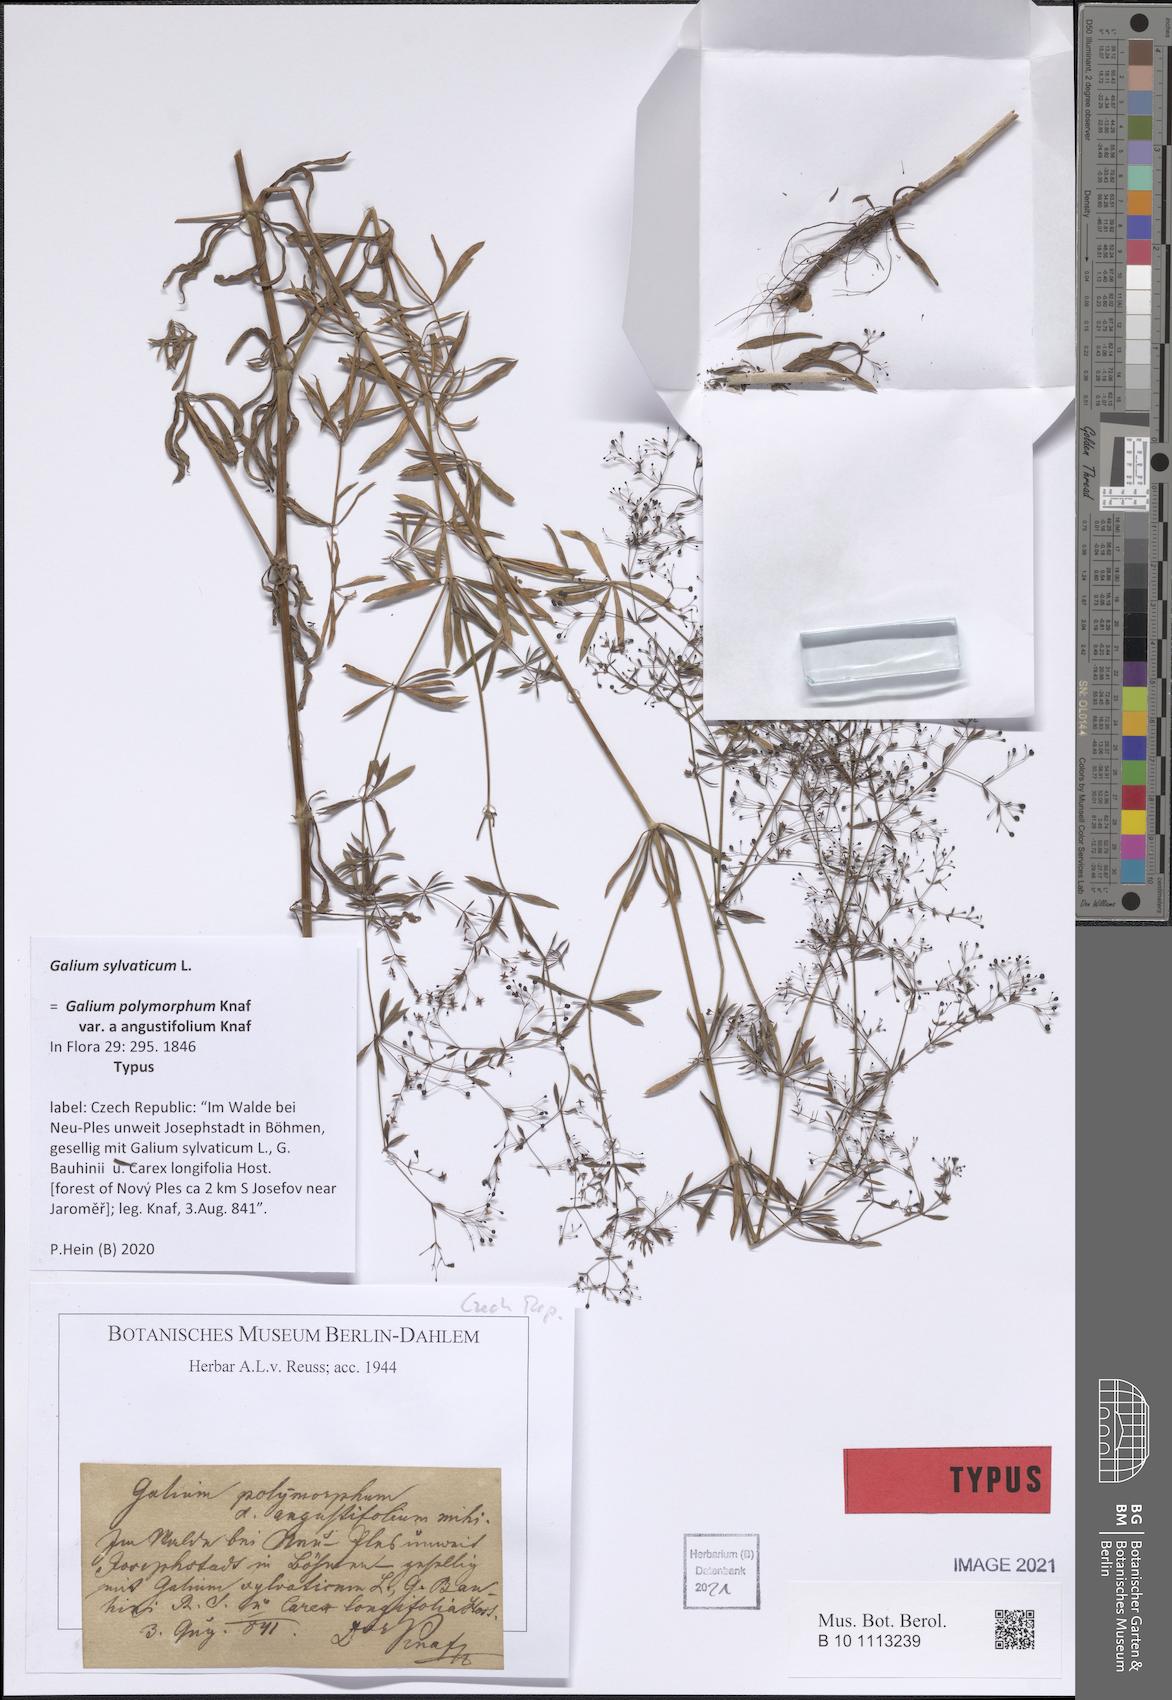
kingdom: Plantae
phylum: Tracheophyta
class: Magnoliopsida
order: Gentianales
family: Rubiaceae
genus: Galium
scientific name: Galium sylvaticum
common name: Wood bedstraw
